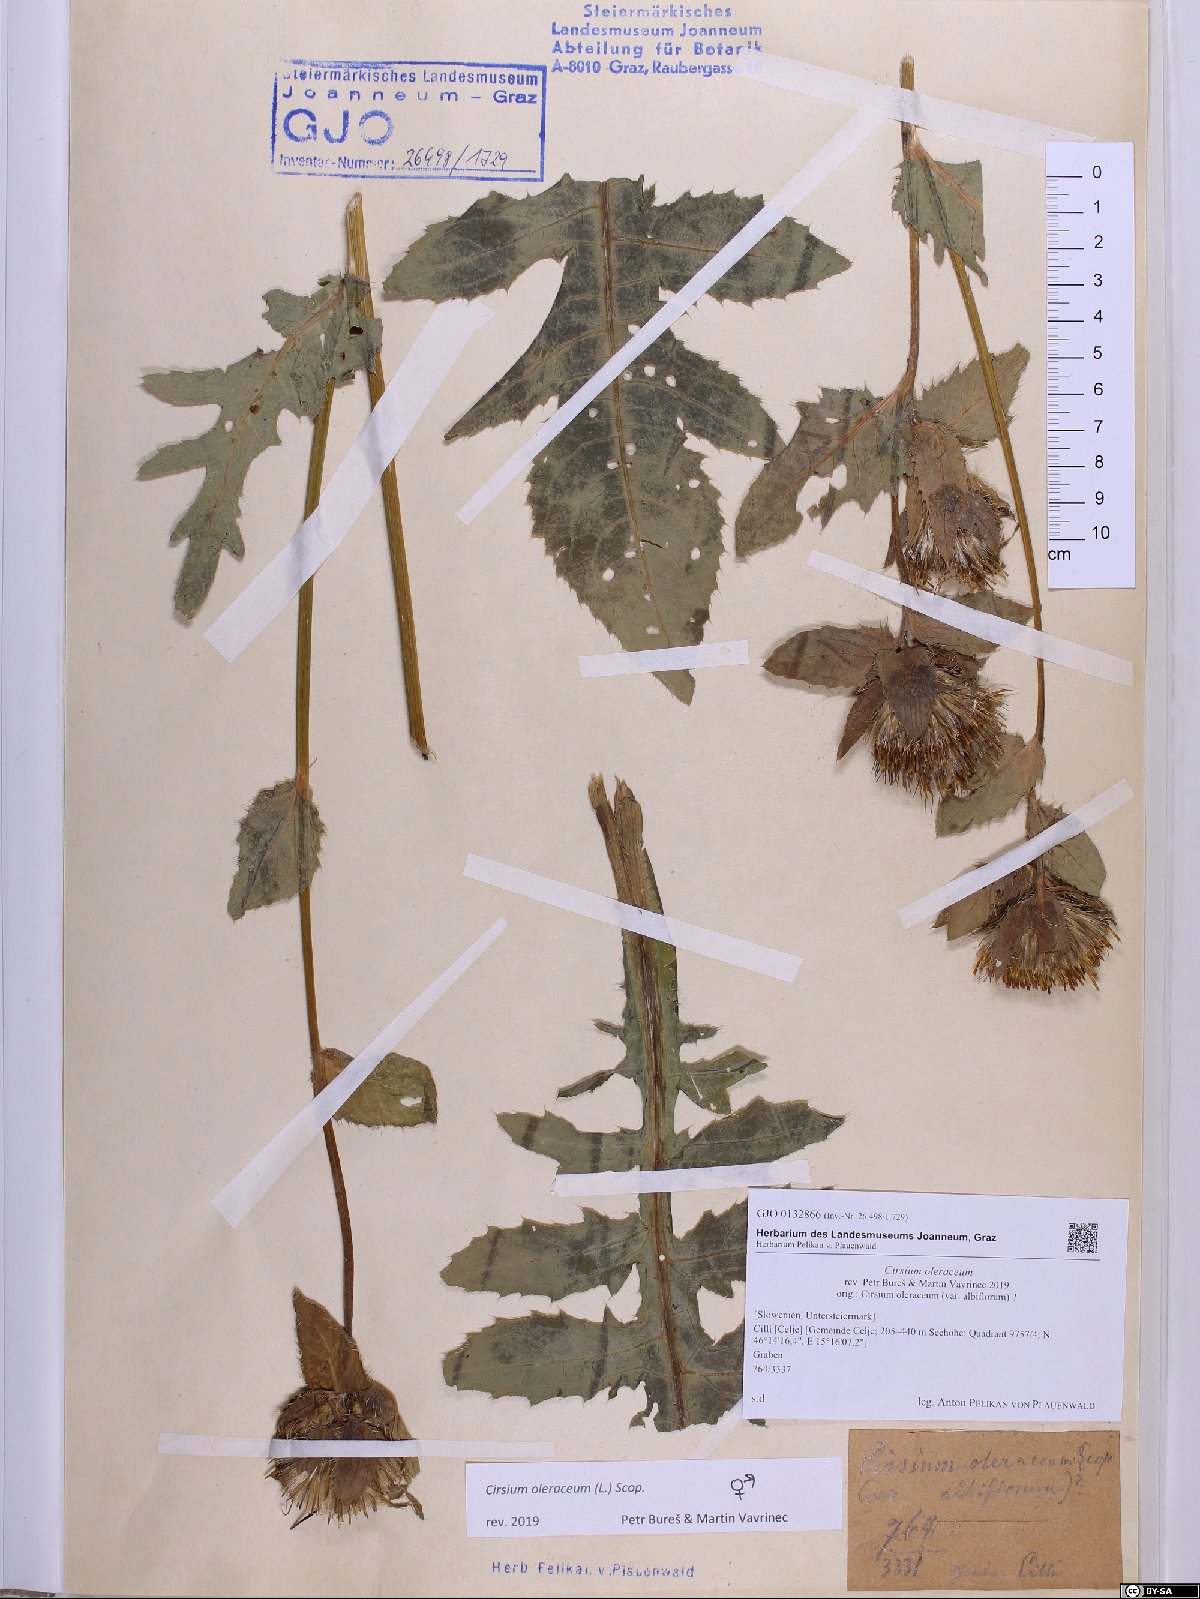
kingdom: Plantae
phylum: Tracheophyta
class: Magnoliopsida
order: Asterales
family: Asteraceae
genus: Cirsium
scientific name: Cirsium oleraceum
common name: Cabbage thistle
